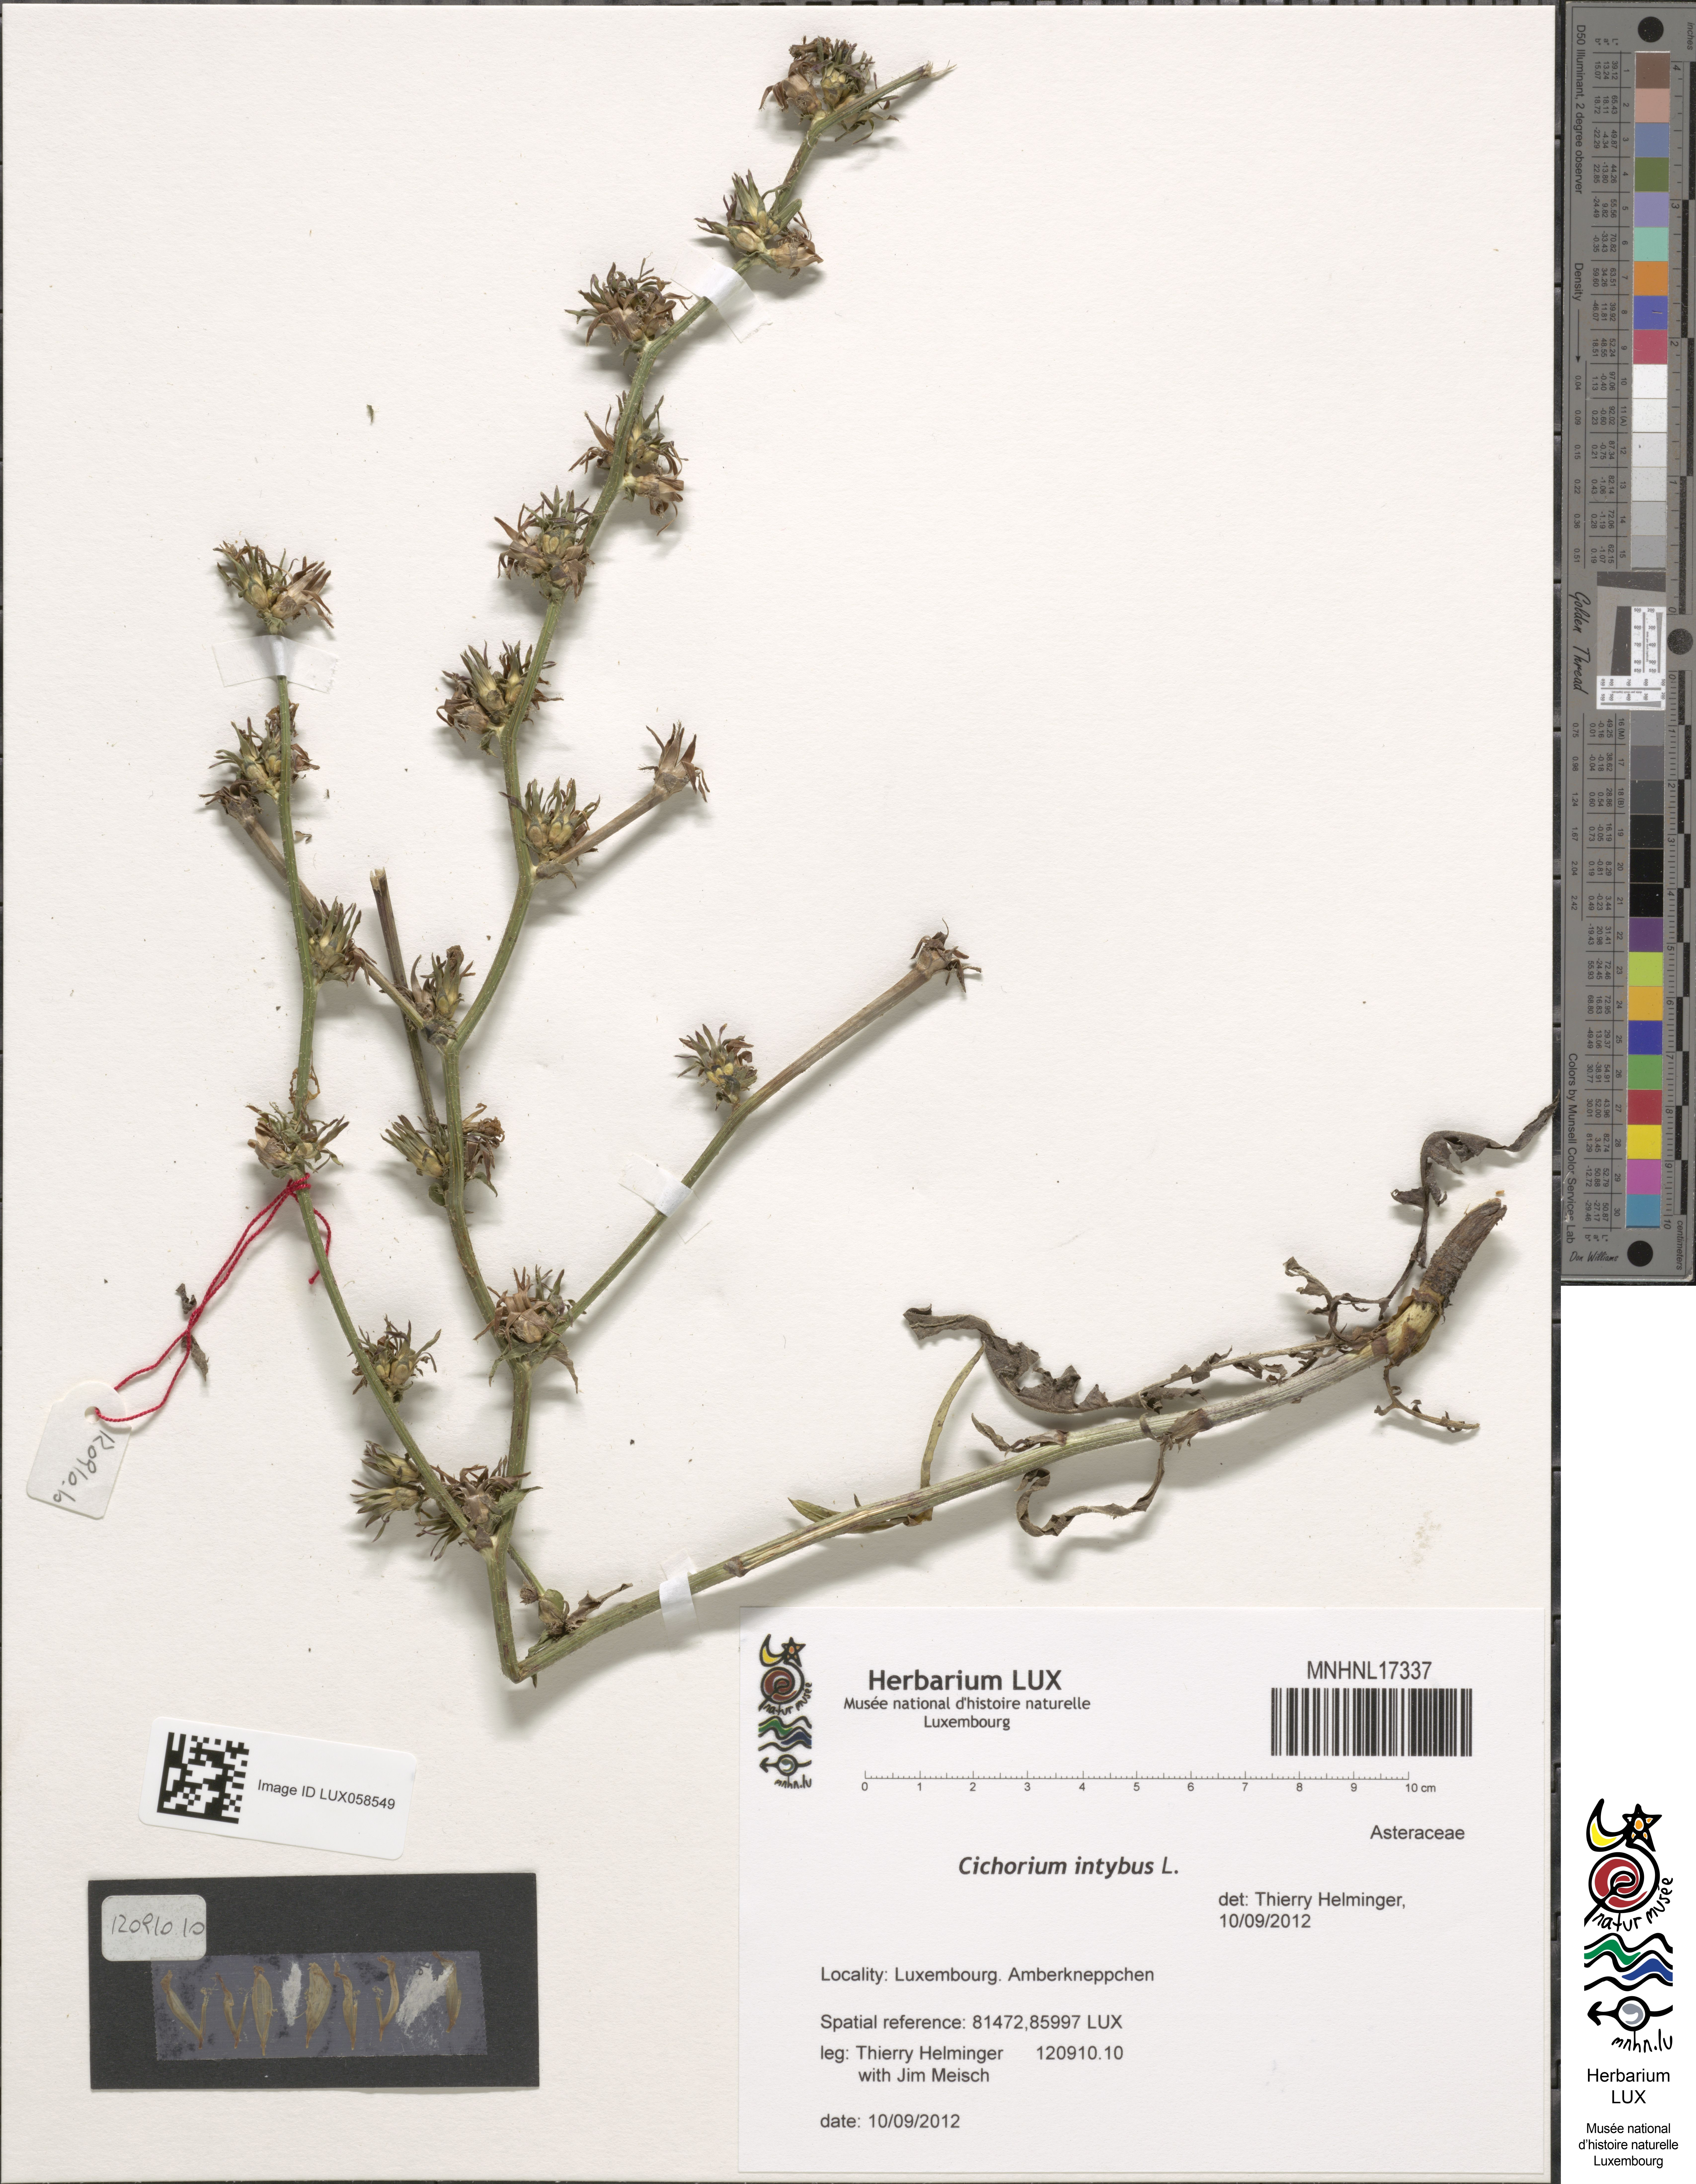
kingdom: Plantae
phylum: Tracheophyta
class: Magnoliopsida
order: Asterales
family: Asteraceae
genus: Cichorium
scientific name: Cichorium intybus
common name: Chicory
